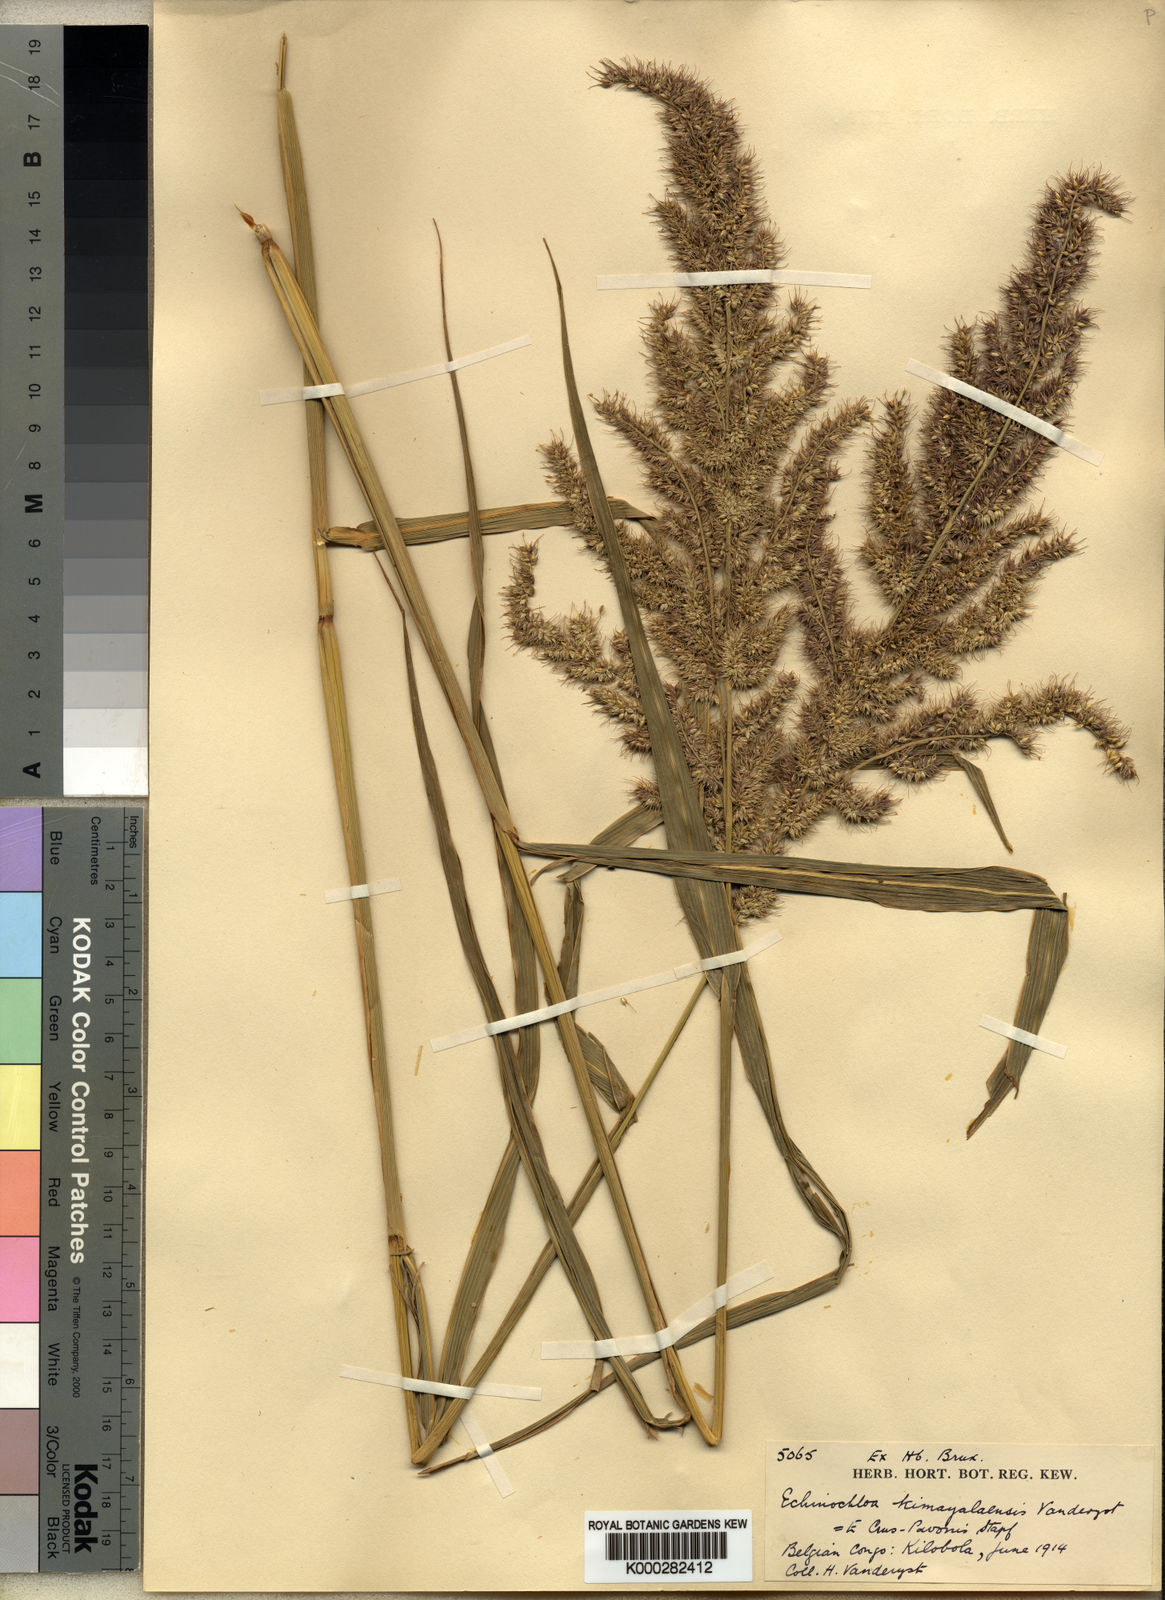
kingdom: Plantae
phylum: Tracheophyta
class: Liliopsida
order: Poales
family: Poaceae
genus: Echinochloa
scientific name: Echinochloa crus-pavonis
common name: Gulf cockspur grass
